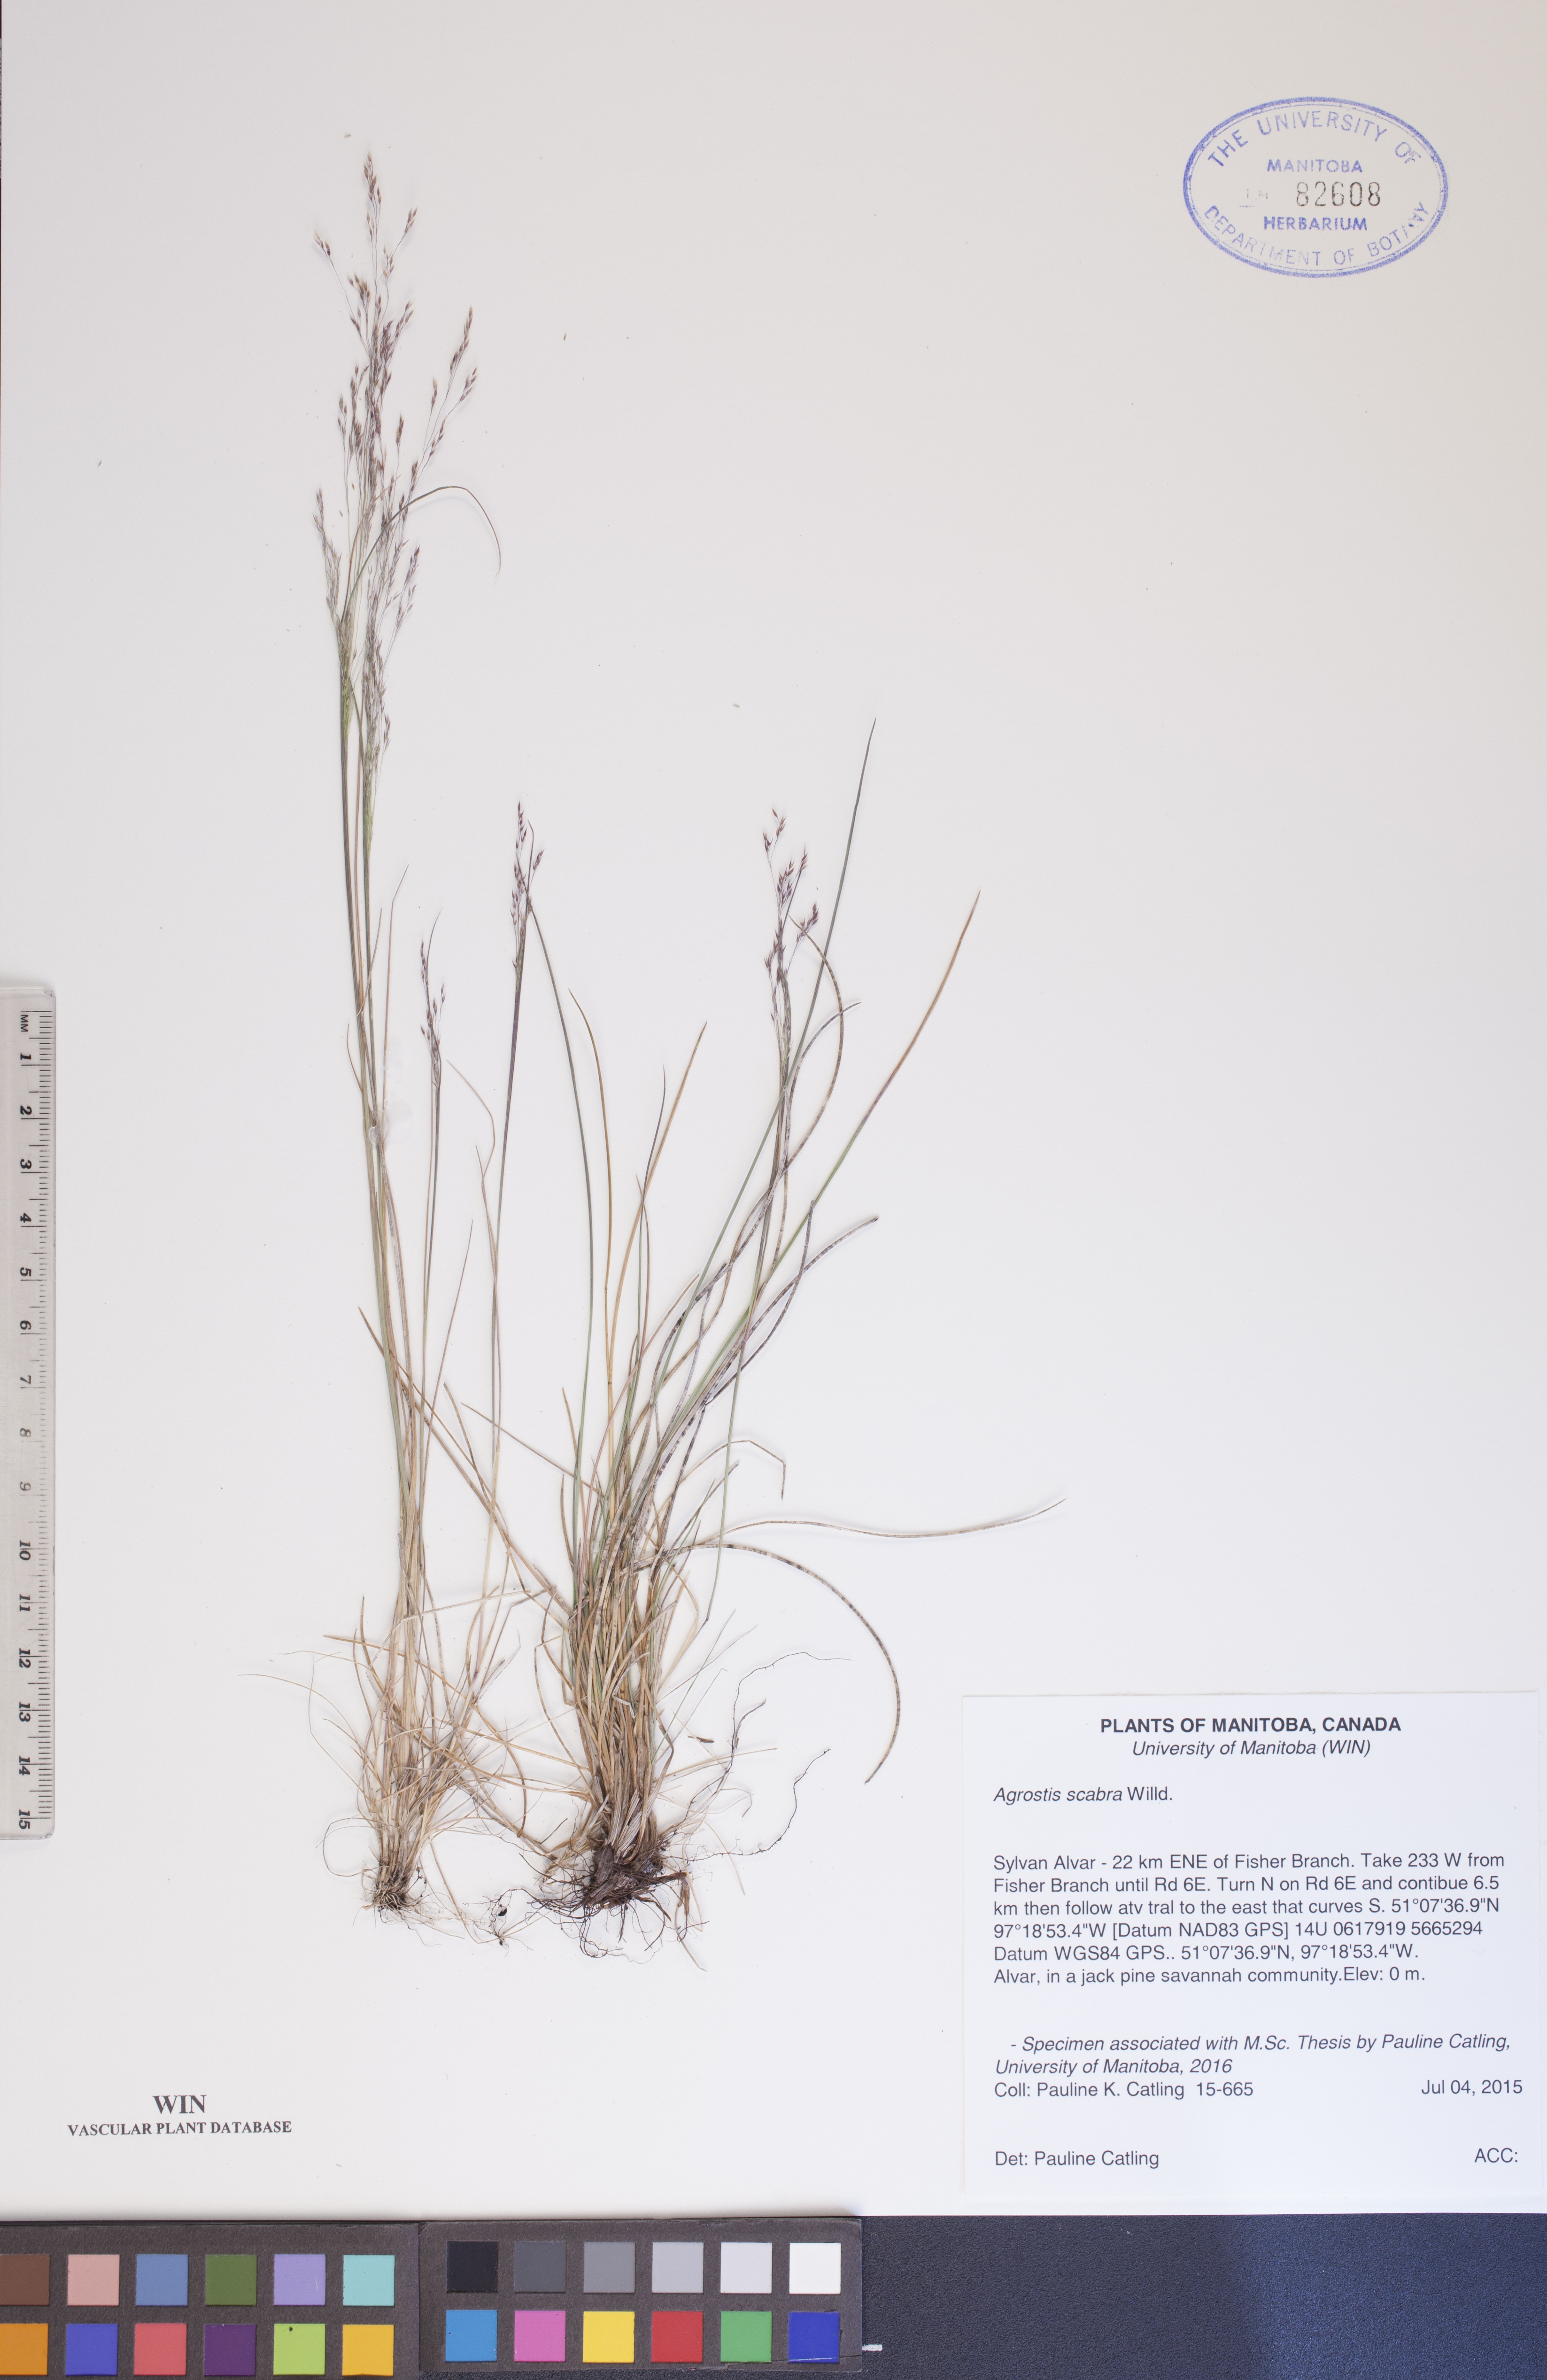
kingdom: Plantae
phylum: Tracheophyta
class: Liliopsida
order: Poales
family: Poaceae
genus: Agrostis
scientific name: Agrostis scabra
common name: Rough bent
